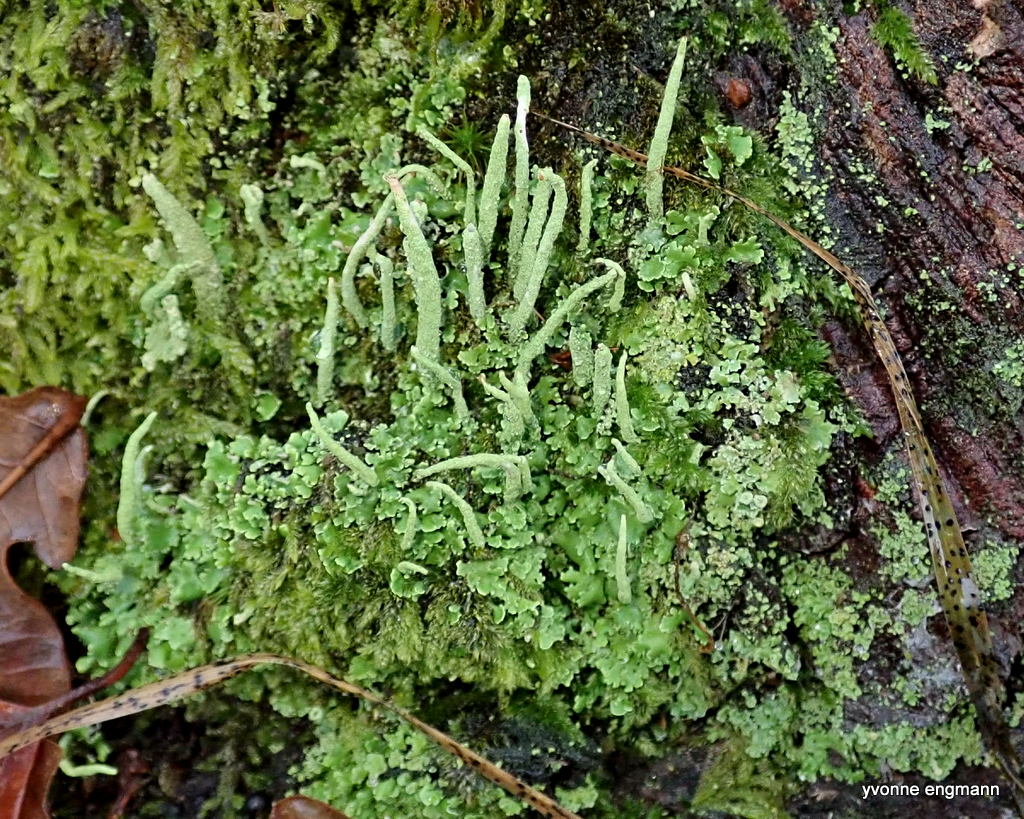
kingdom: Fungi
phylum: Ascomycota
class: Lecanoromycetes
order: Lecanorales
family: Cladoniaceae
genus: Cladonia
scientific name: Cladonia ochrochlora
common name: stød-bægerlav
